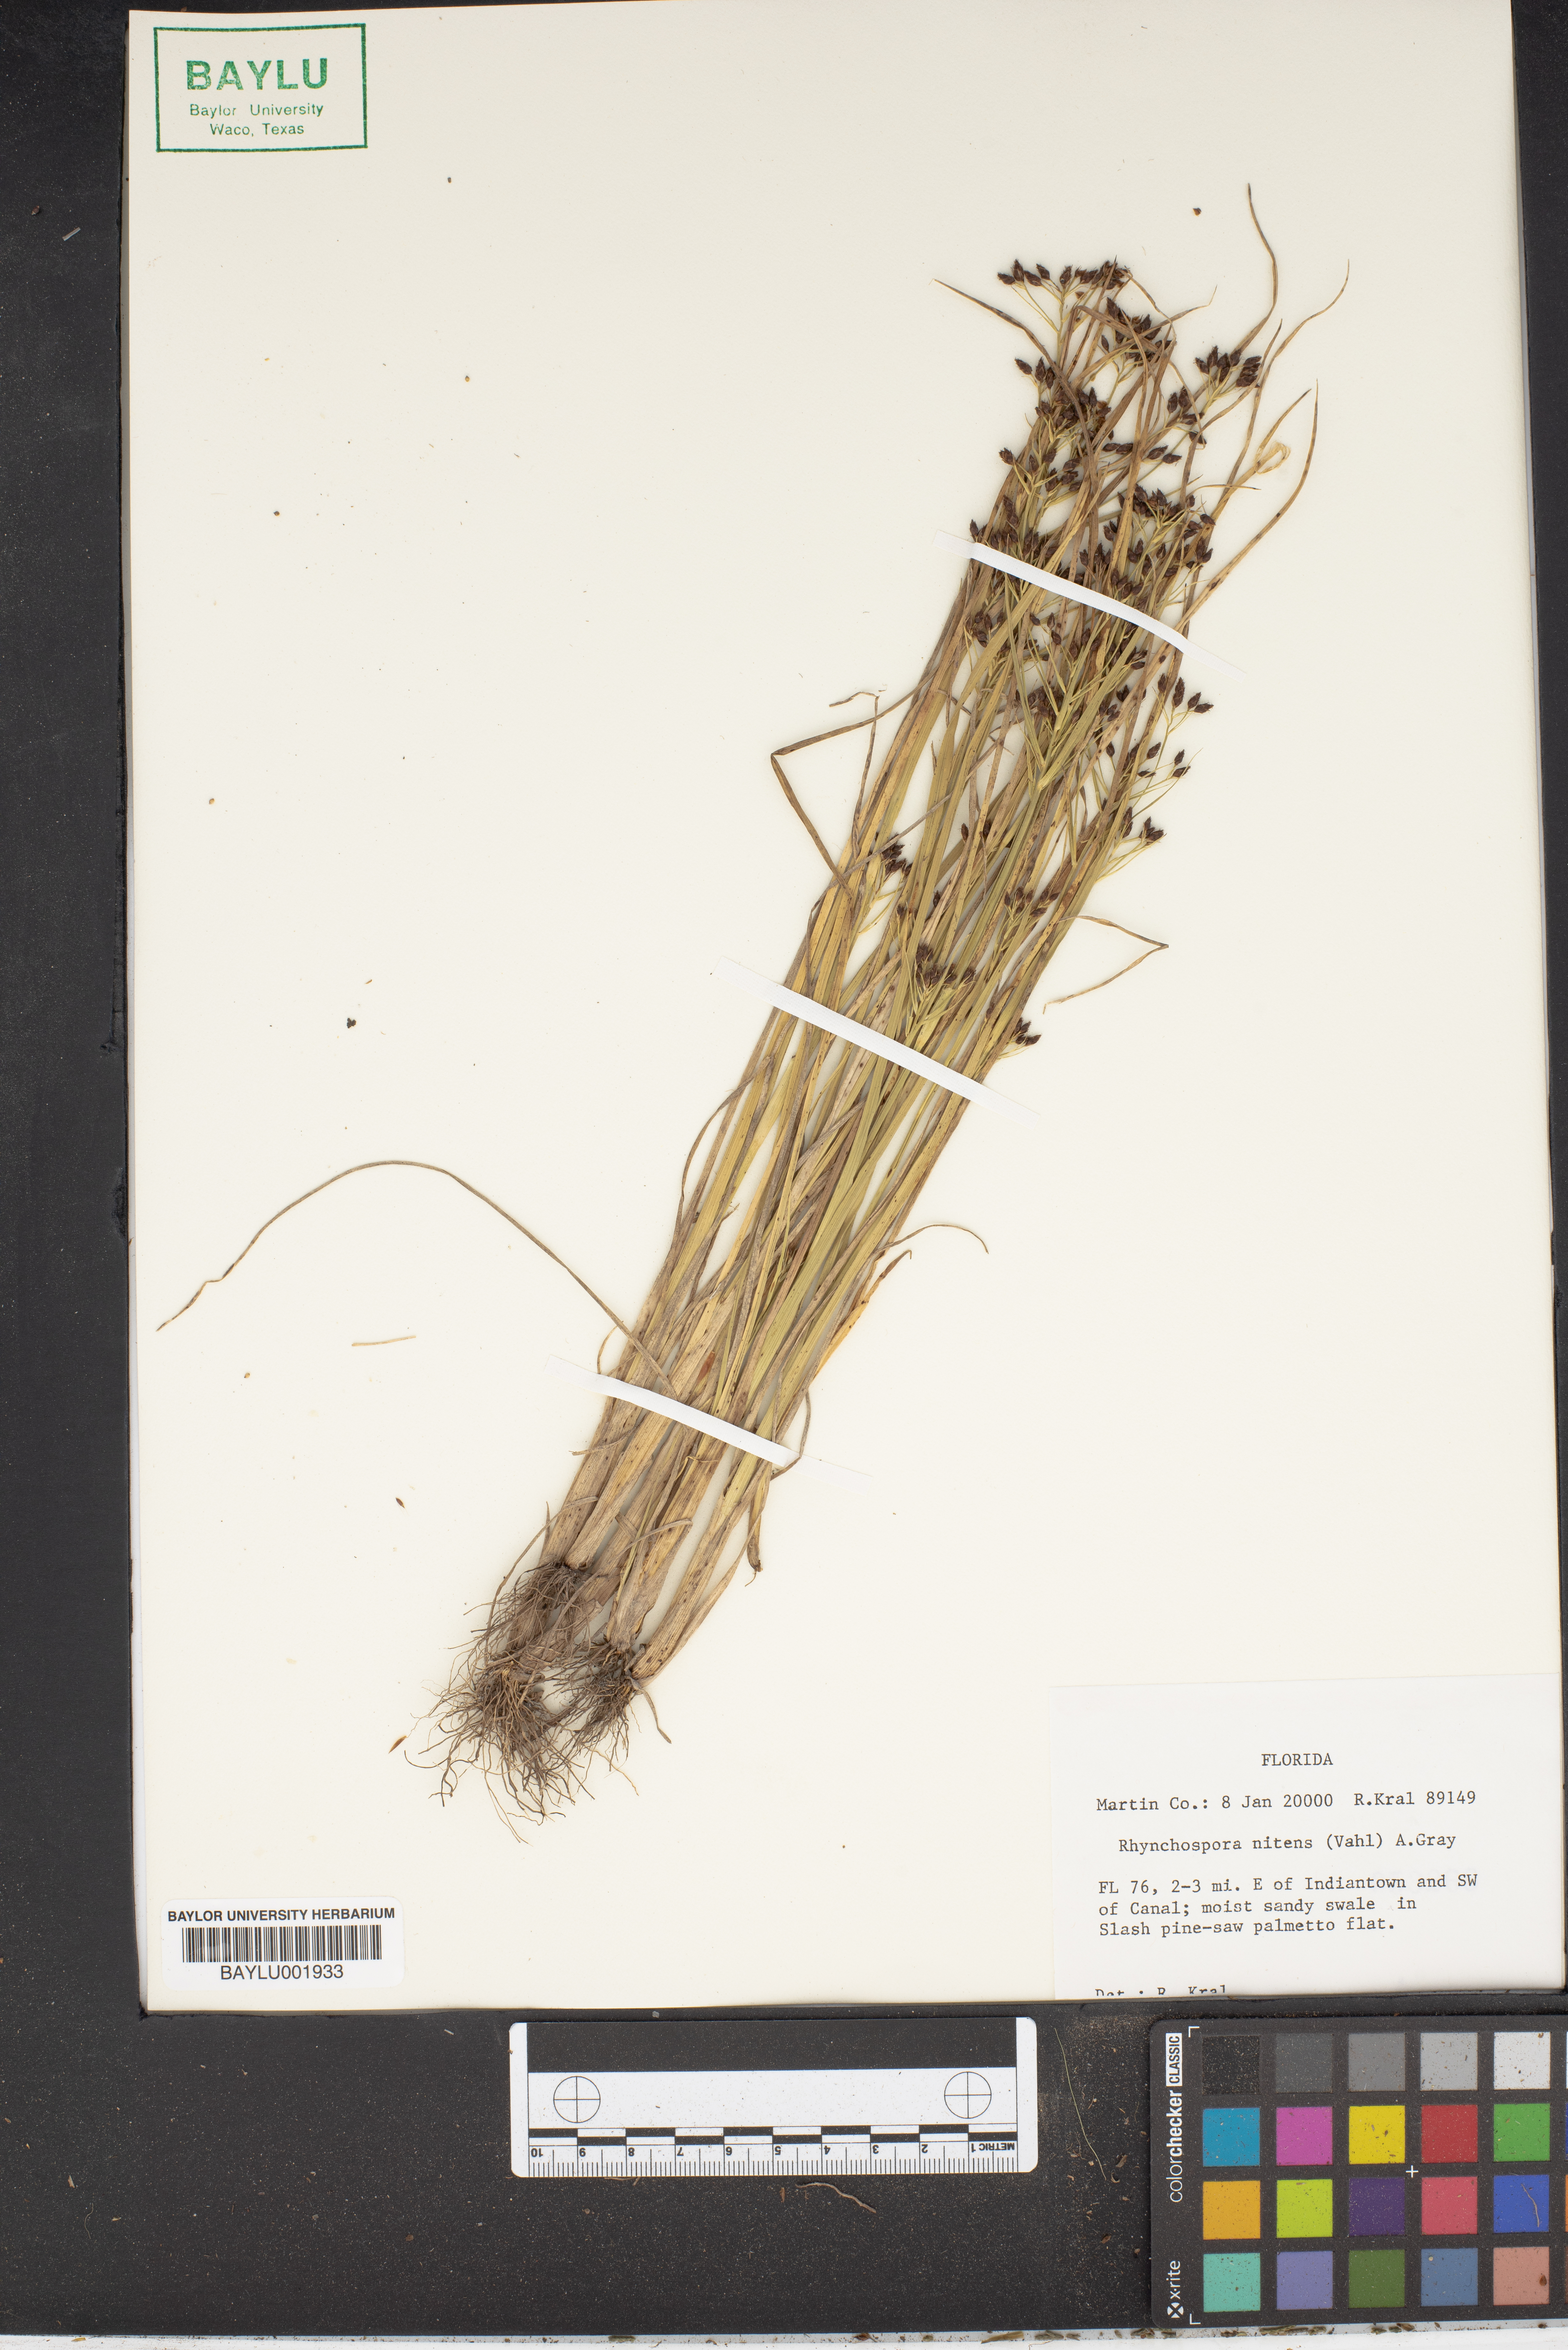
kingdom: Plantae
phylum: Tracheophyta
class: Liliopsida
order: Poales
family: Cyperaceae
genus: Rhynchospora
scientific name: Rhynchospora nitens
